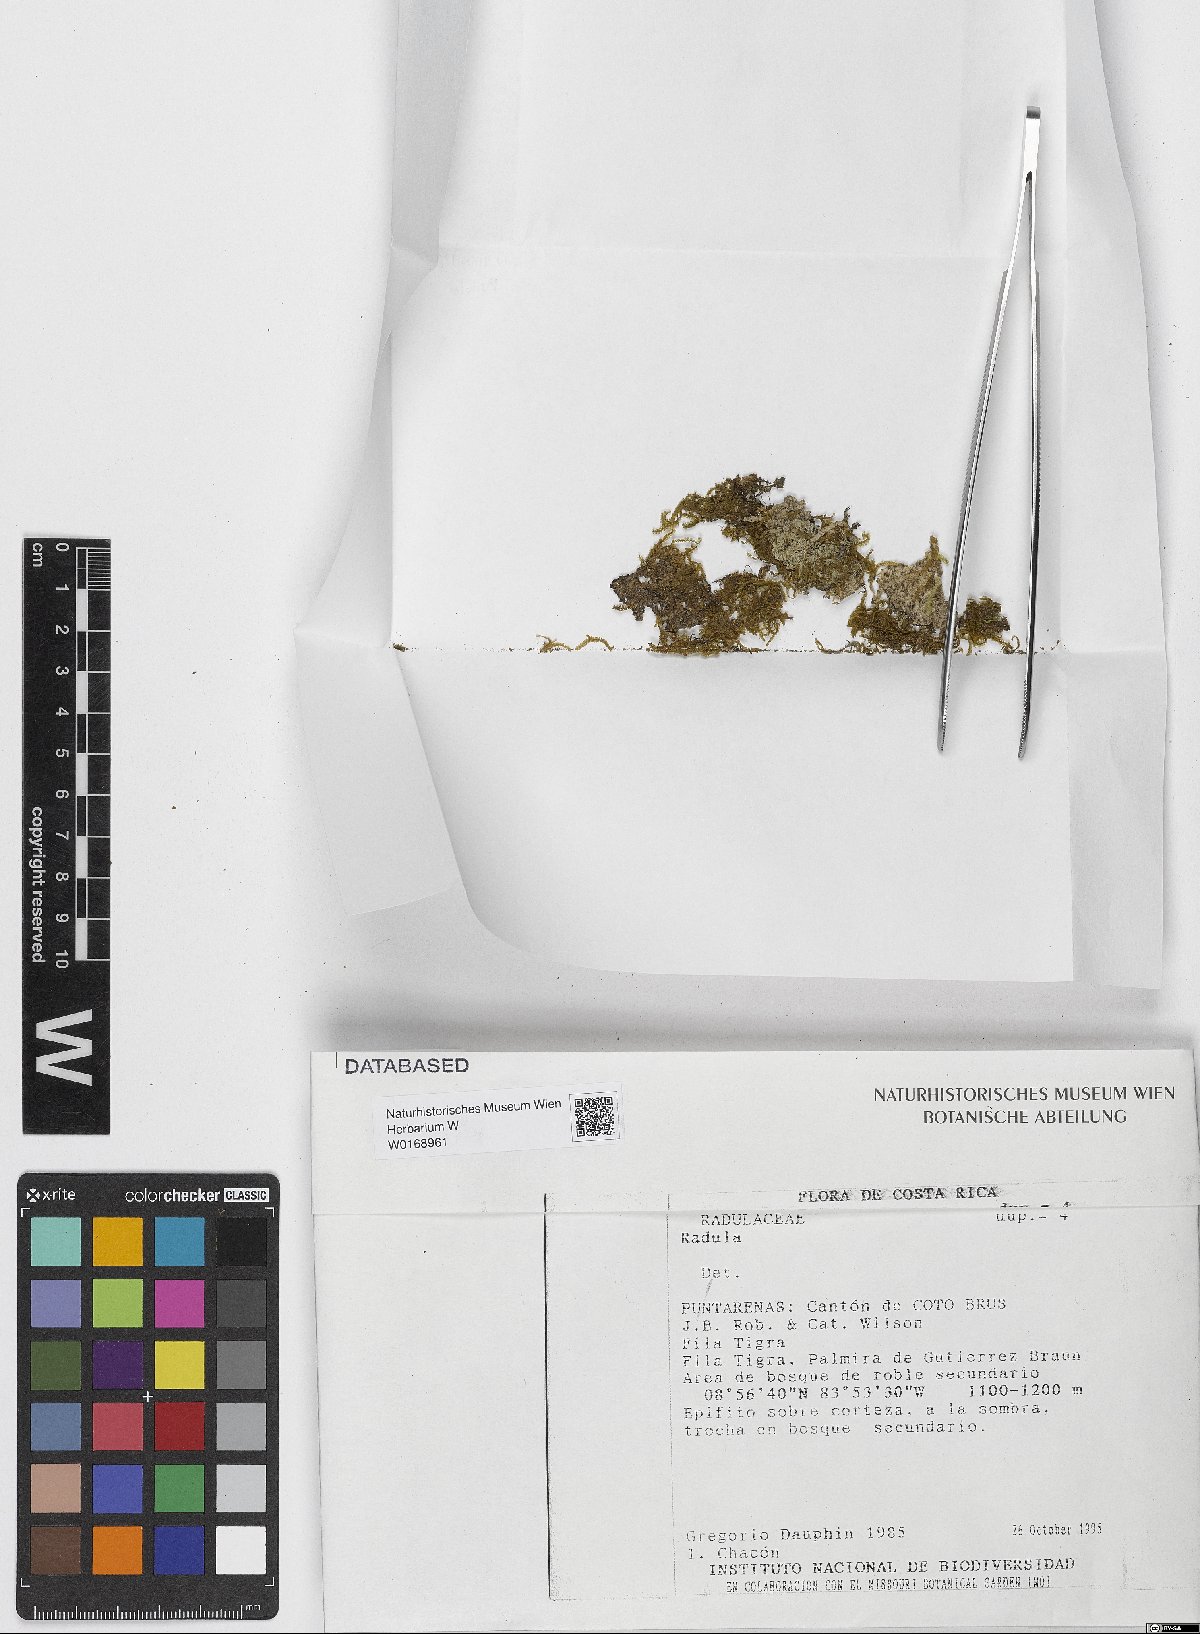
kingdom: Plantae
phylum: Marchantiophyta
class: Jungermanniopsida
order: Porellales
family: Radulaceae
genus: Radula
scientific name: Radula
